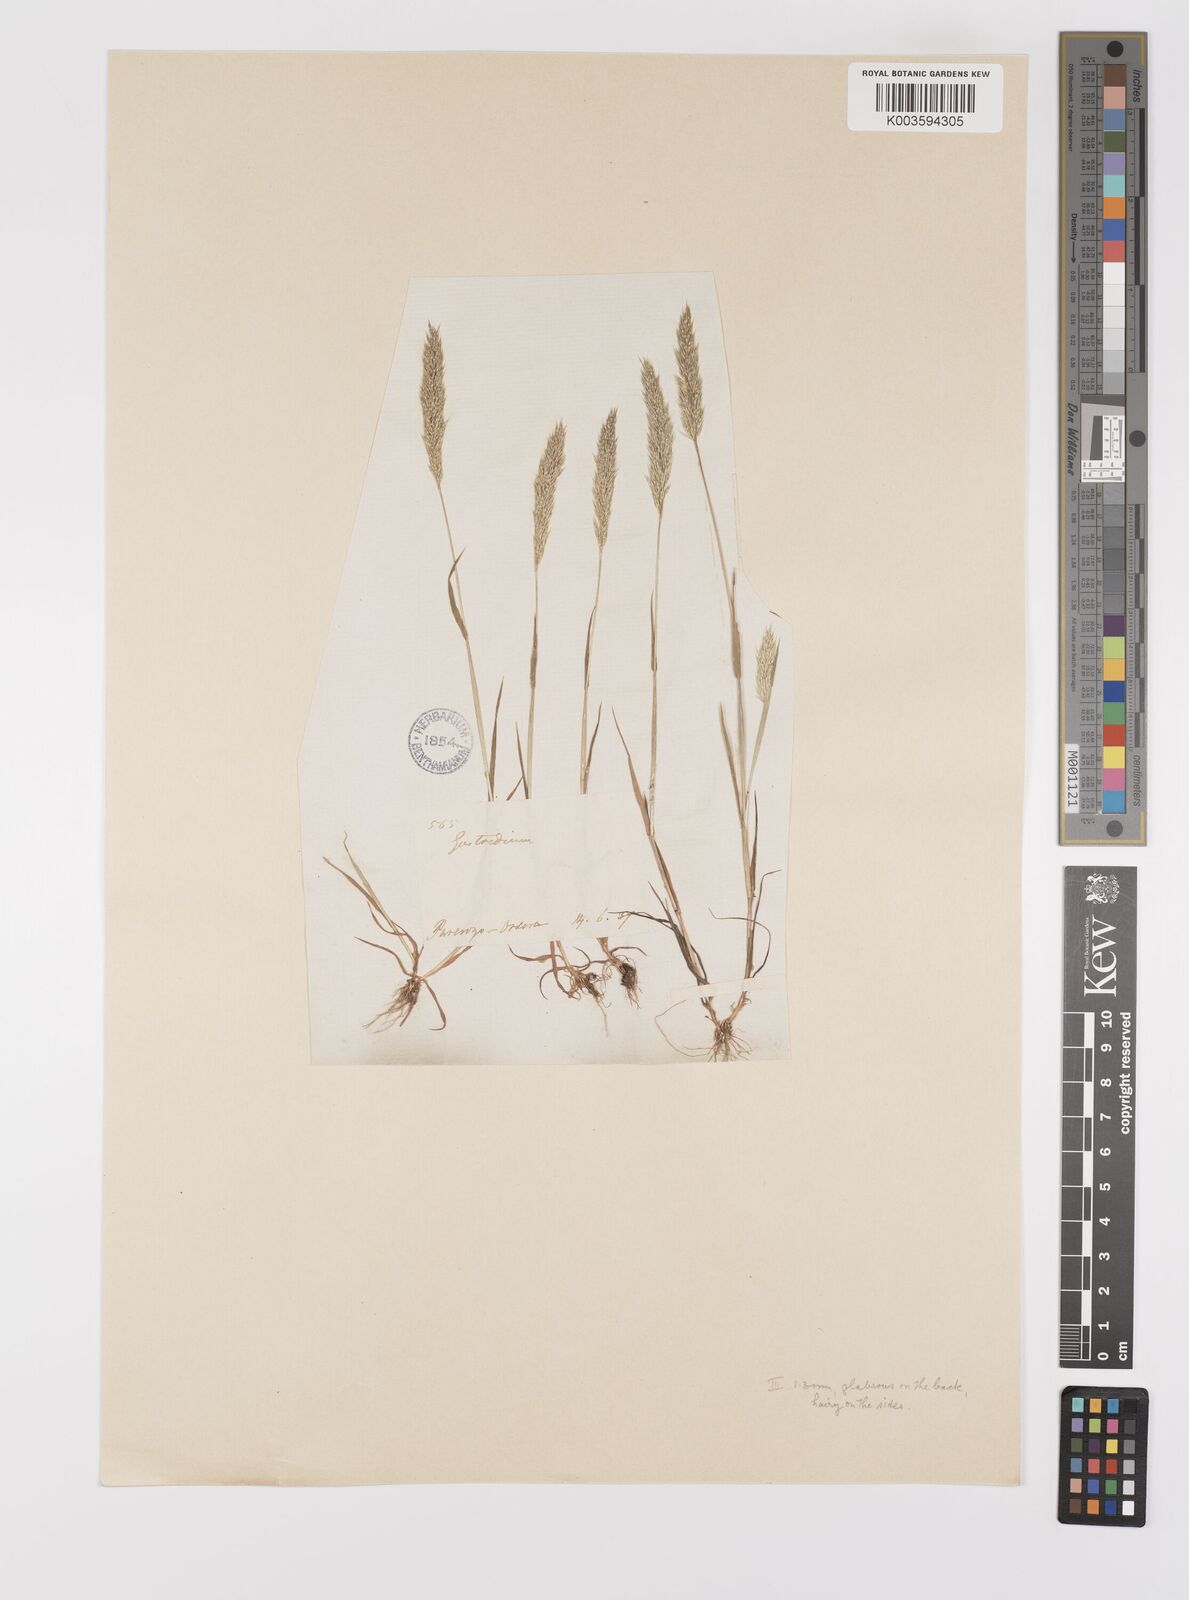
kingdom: Plantae
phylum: Tracheophyta
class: Liliopsida
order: Poales
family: Poaceae
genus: Gastridium
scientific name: Gastridium ventricosum
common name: Nit-grass
